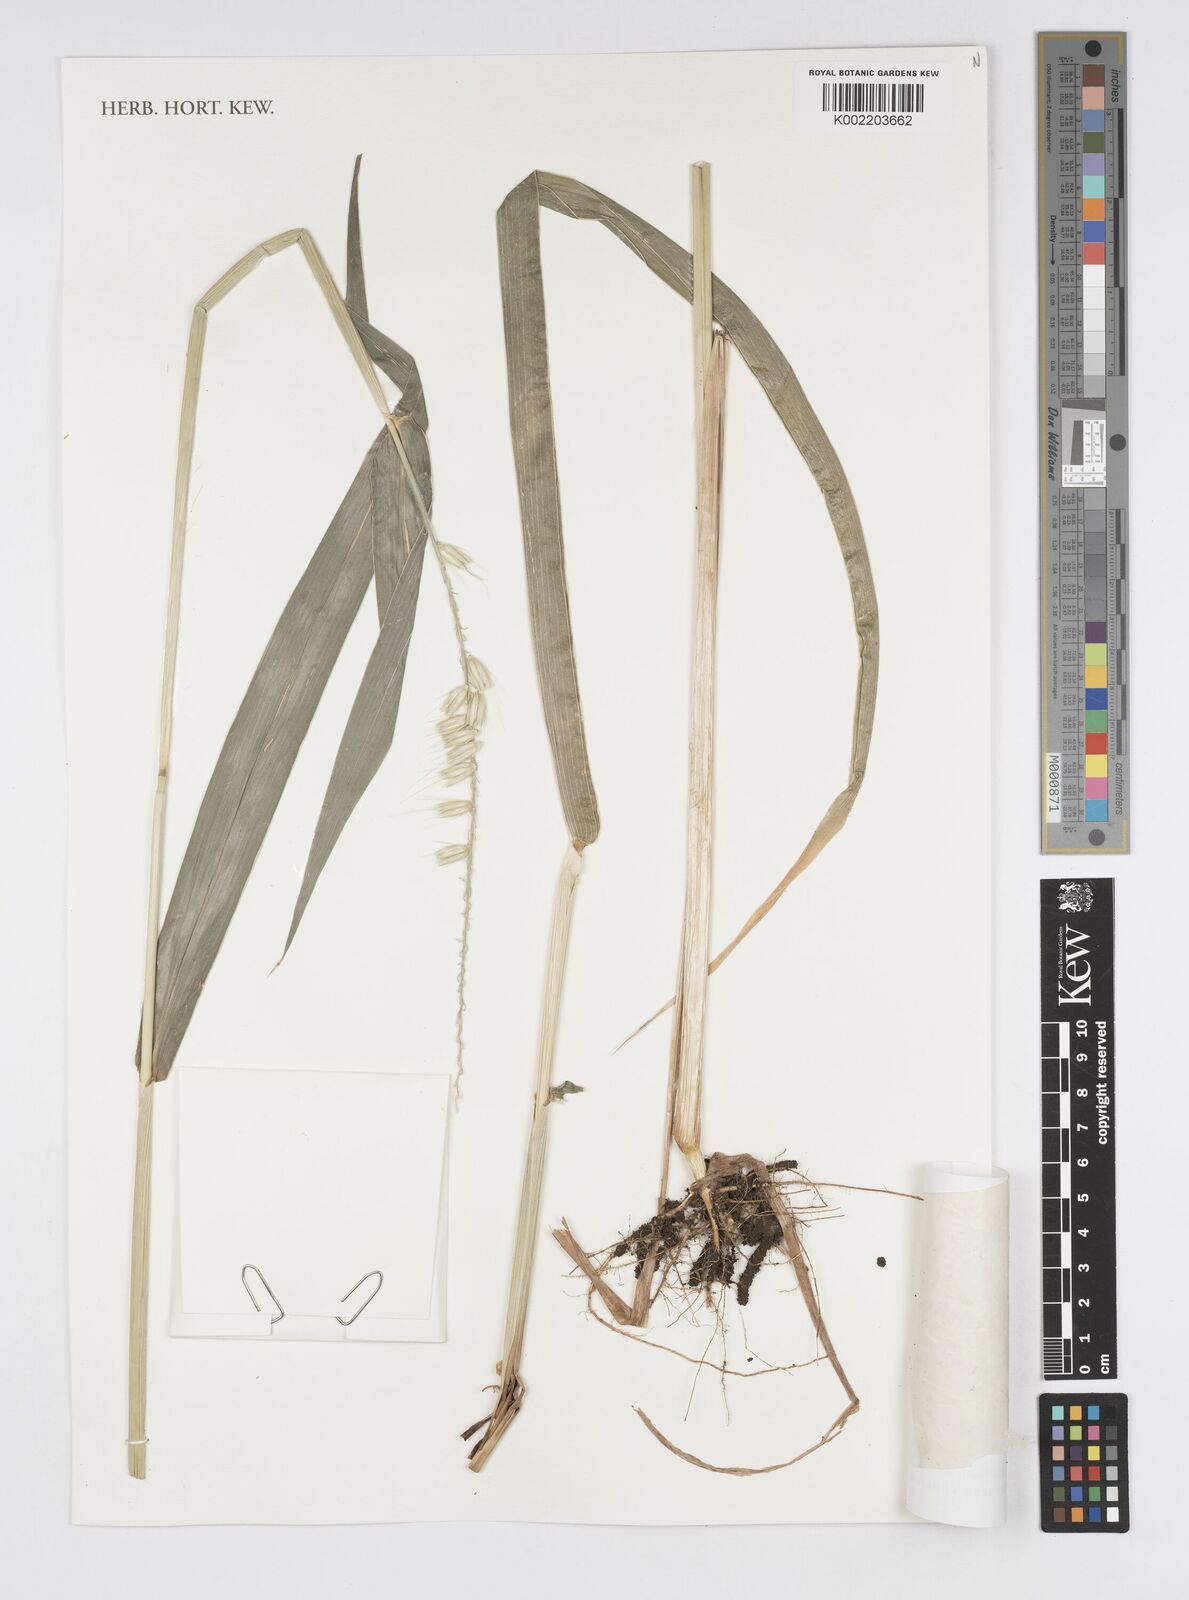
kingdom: Plantae
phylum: Tracheophyta
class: Liliopsida
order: Poales
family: Poaceae
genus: Cenchrus
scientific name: Cenchrus schweinfurthii
